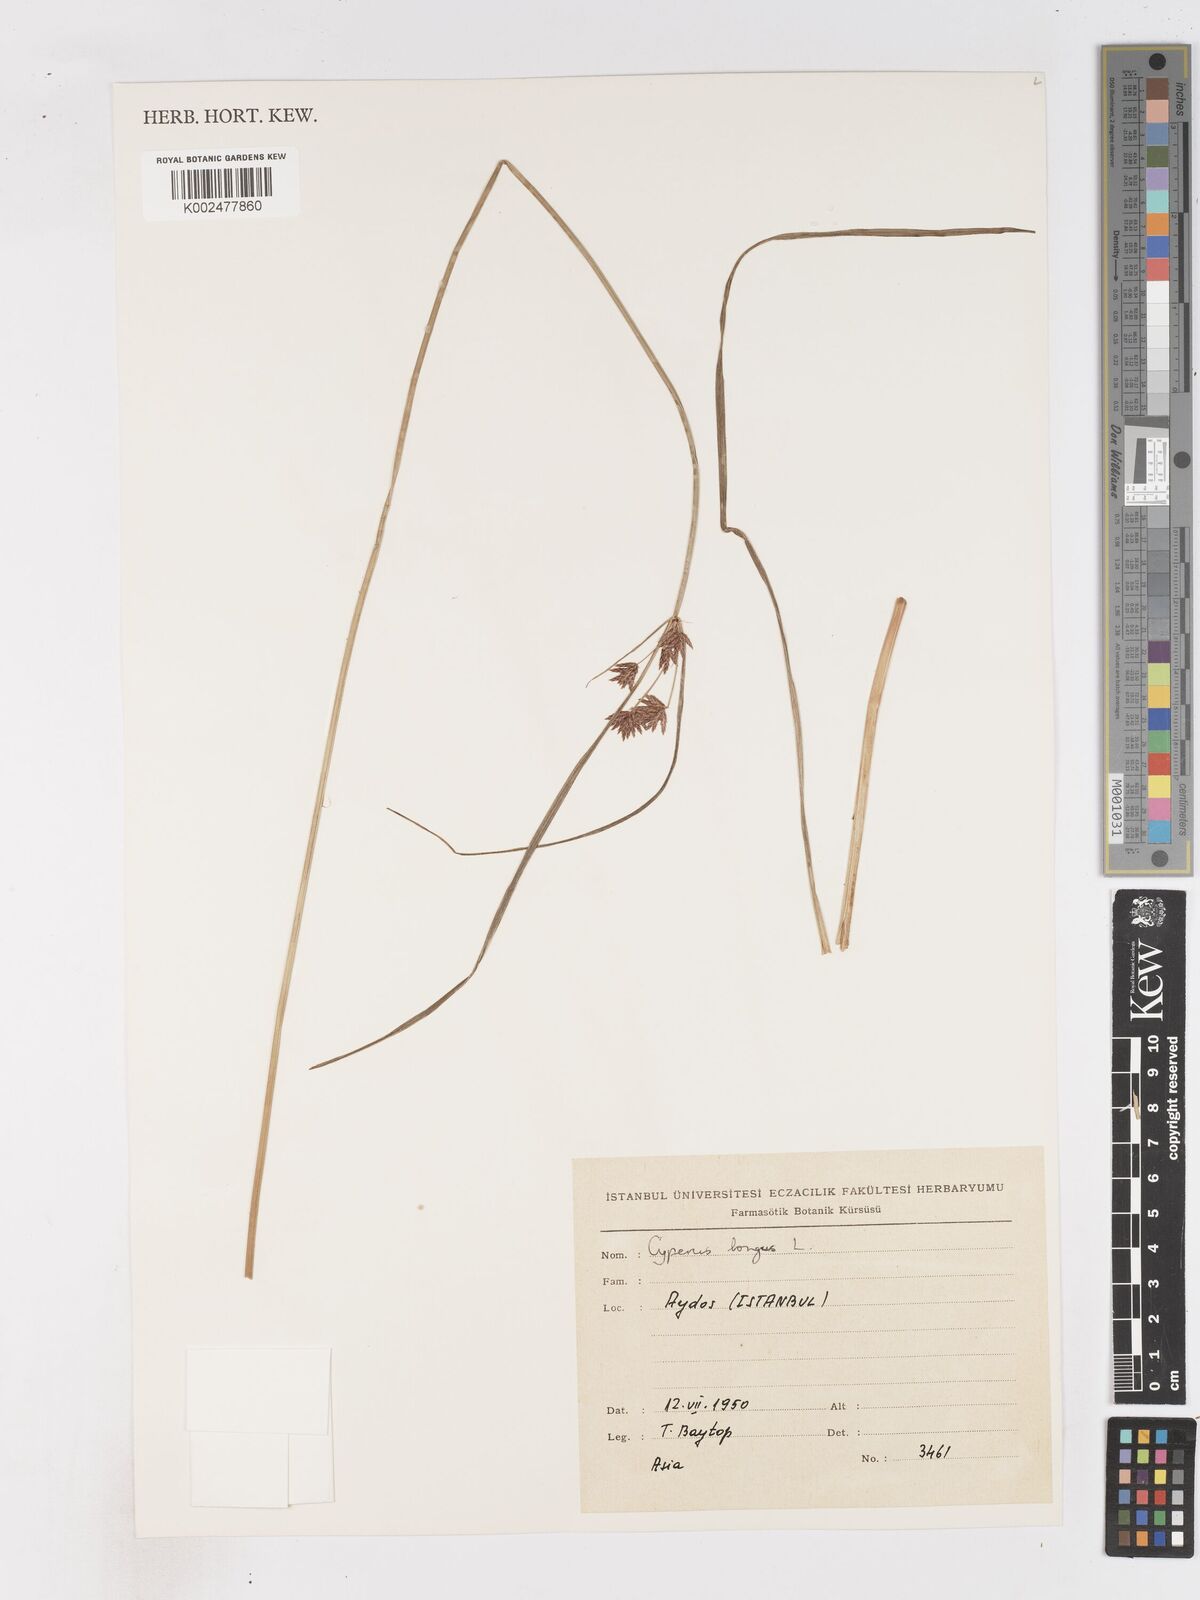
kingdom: Plantae
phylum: Tracheophyta
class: Liliopsida
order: Poales
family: Cyperaceae
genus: Cyperus
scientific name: Cyperus patulus
